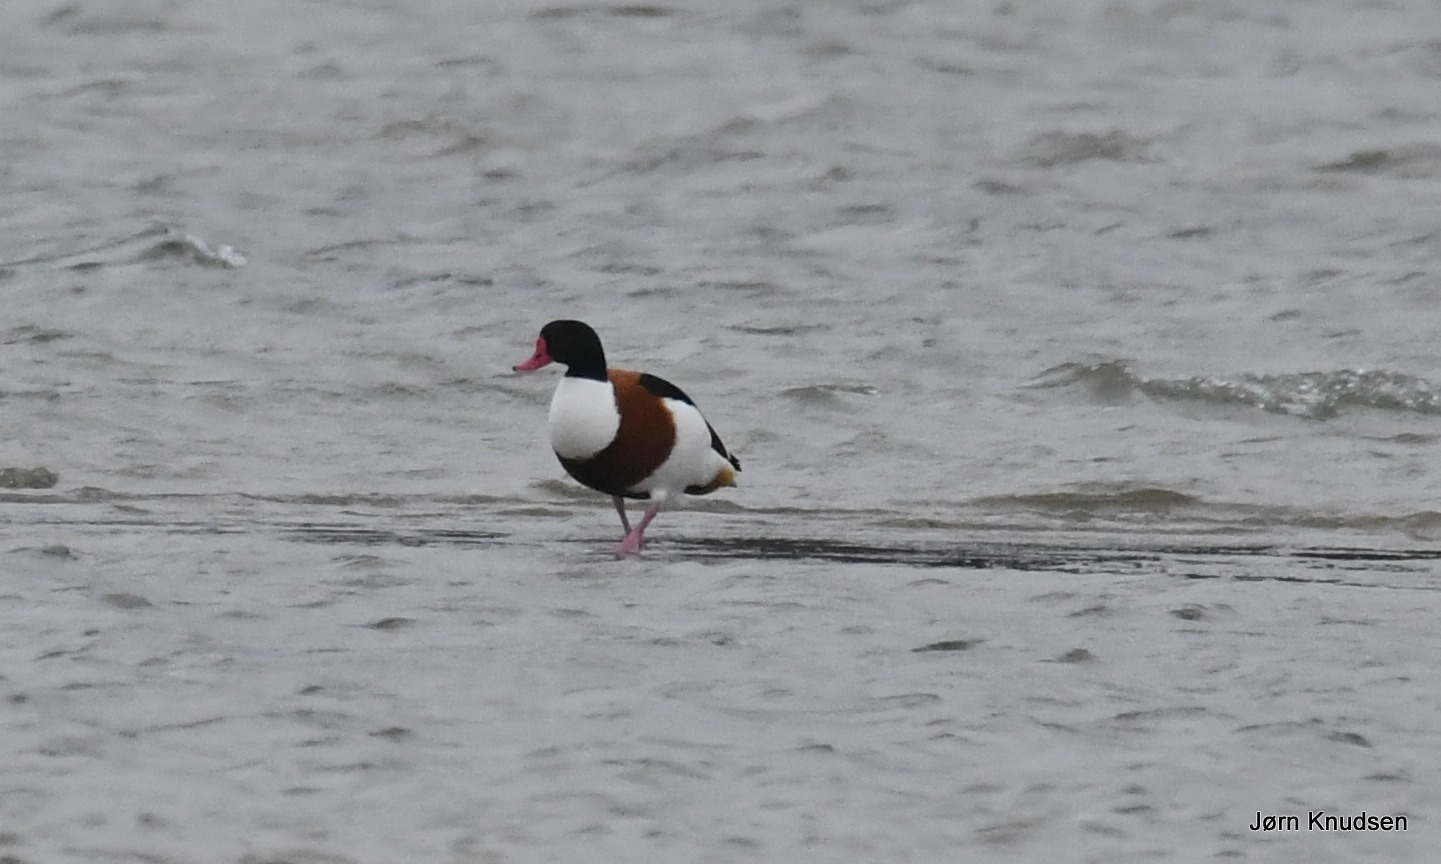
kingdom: Animalia
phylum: Chordata
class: Aves
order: Anseriformes
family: Anatidae
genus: Tadorna
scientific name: Tadorna tadorna
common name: Gravand
